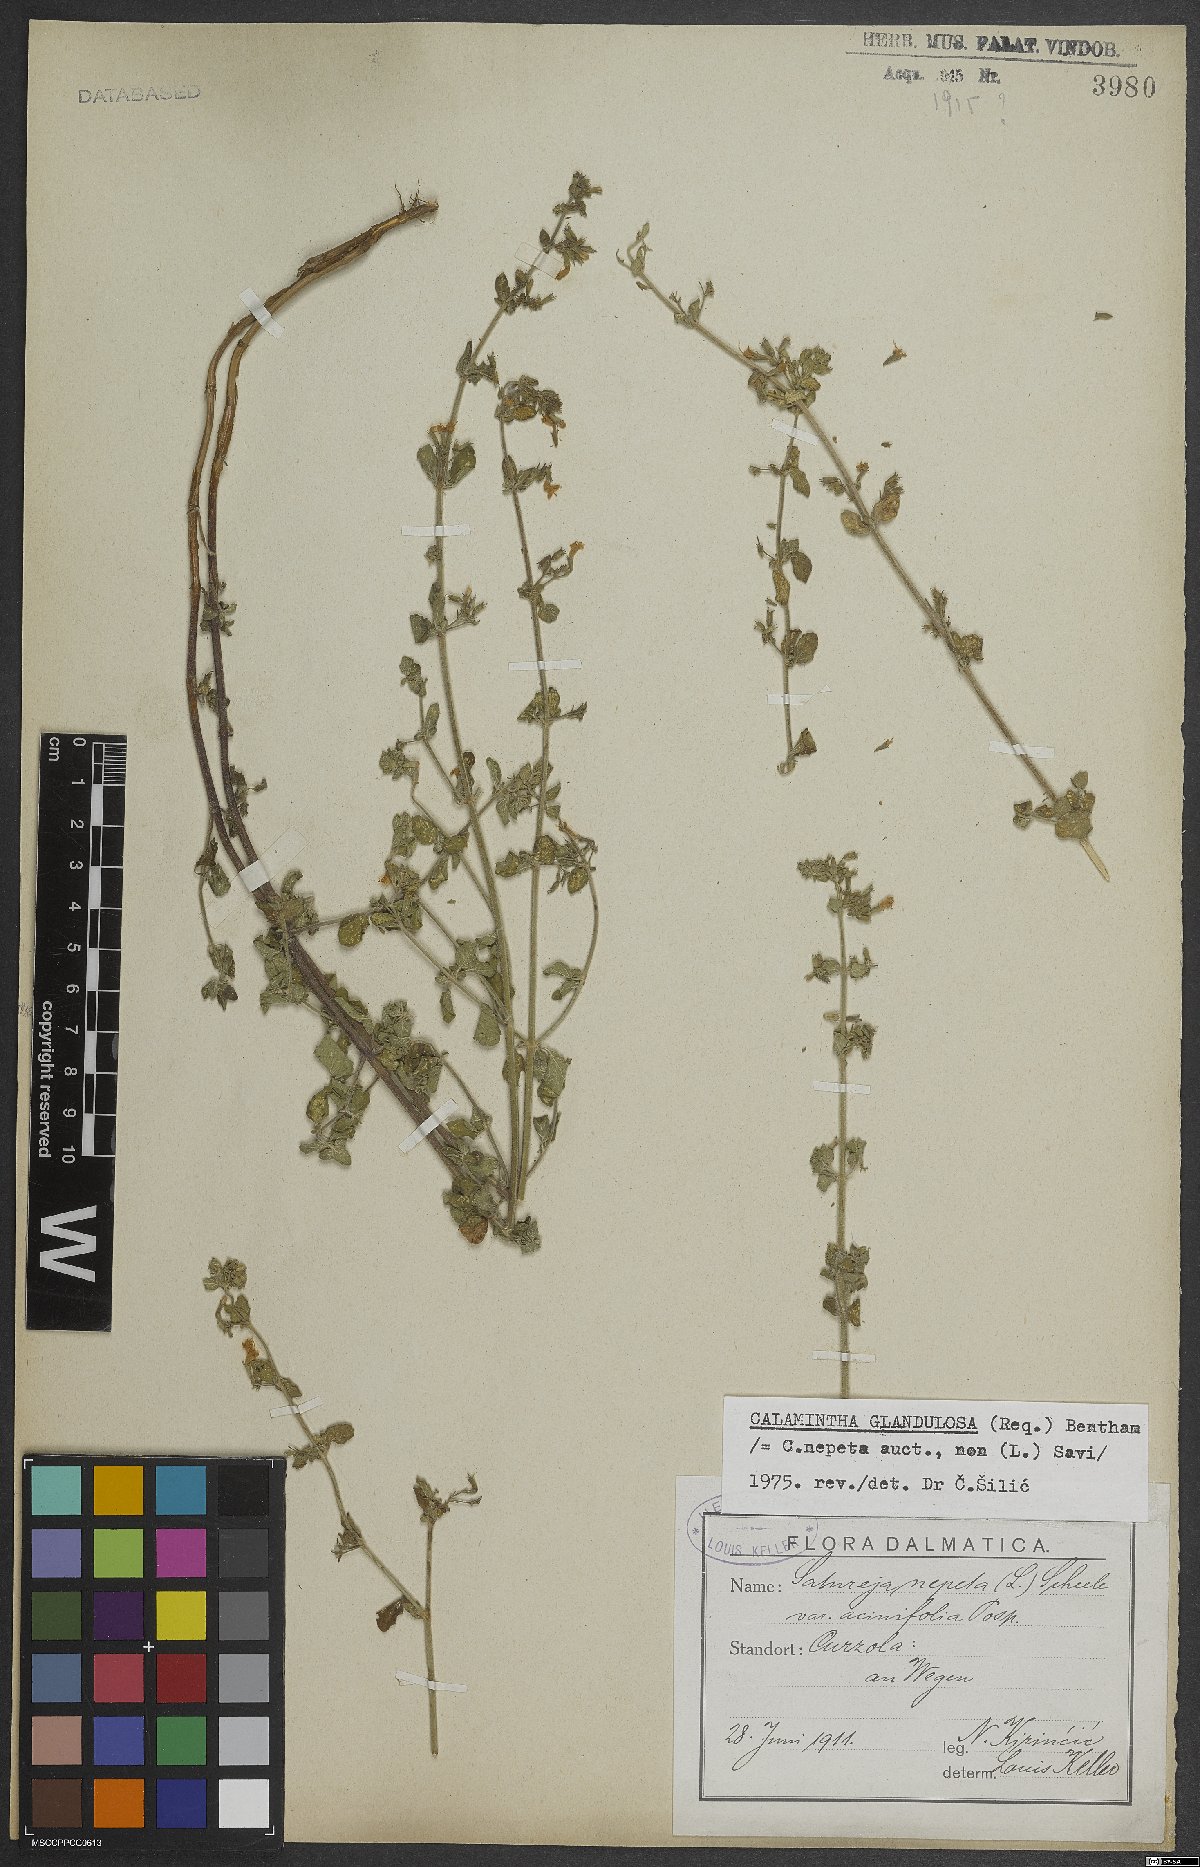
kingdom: Plantae
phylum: Tracheophyta
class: Magnoliopsida
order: Lamiales
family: Lamiaceae
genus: Clinopodium
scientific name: Clinopodium nepeta
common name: Lesser calamint
